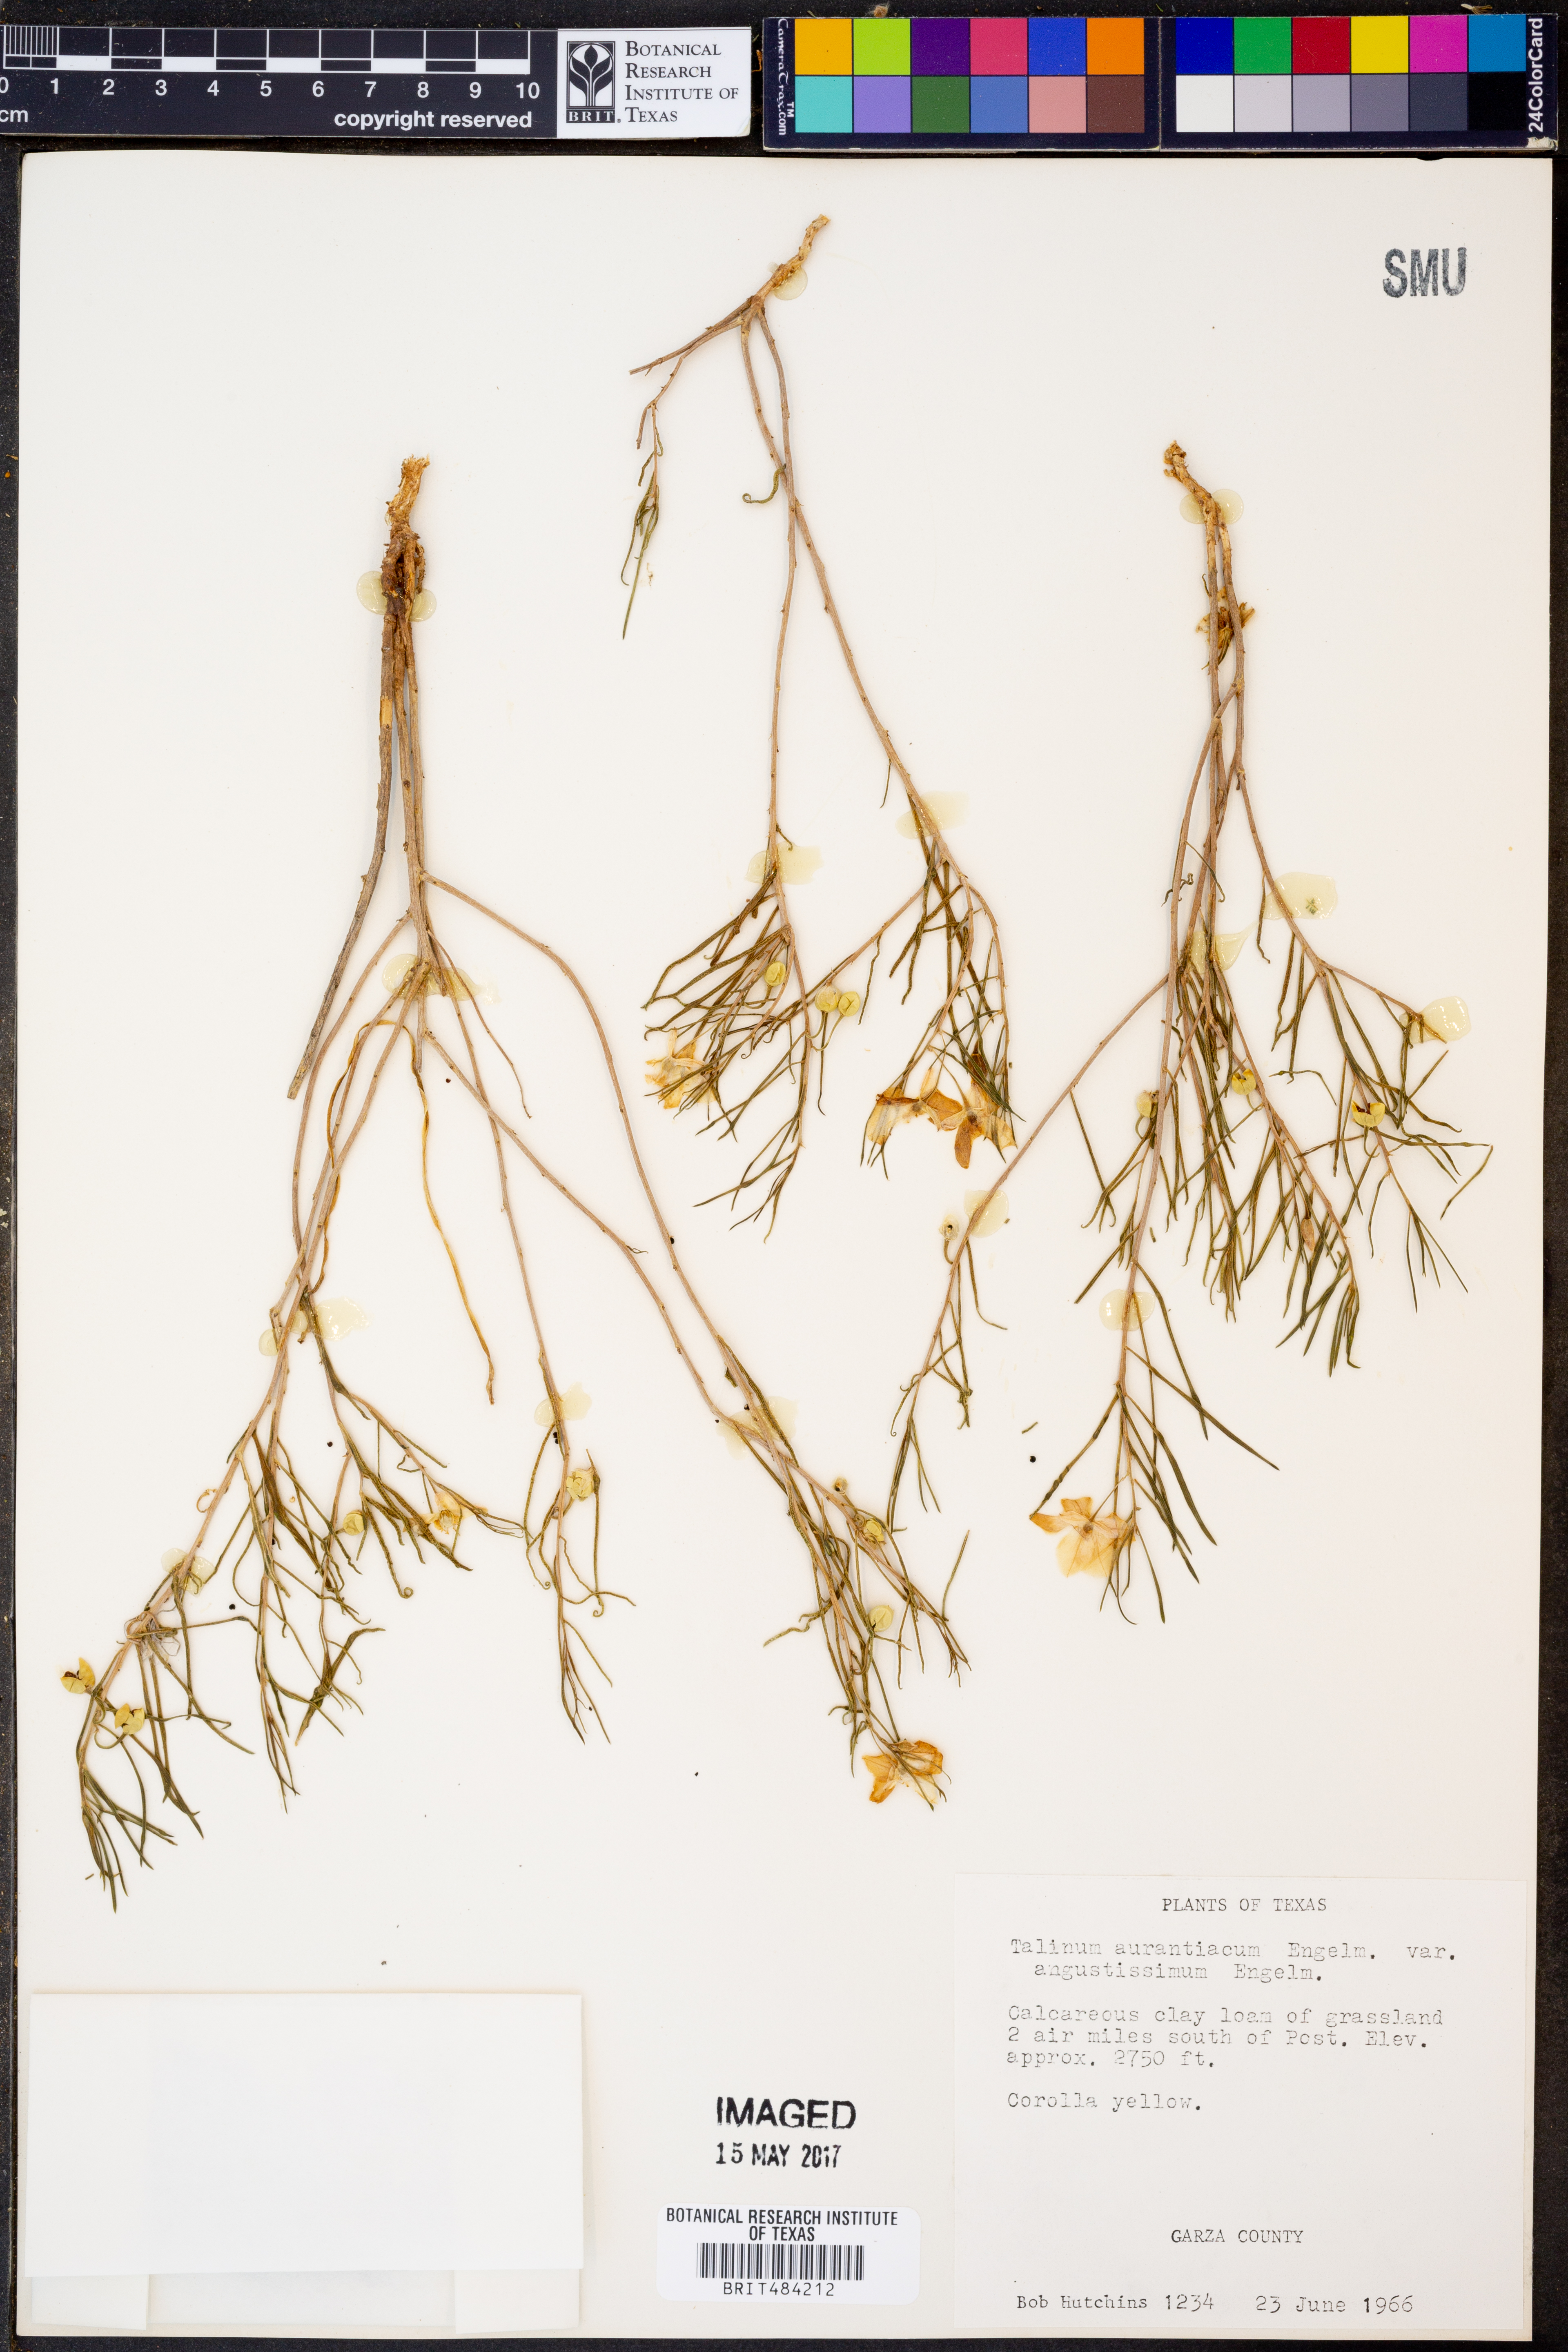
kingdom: Plantae
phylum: Tracheophyta
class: Magnoliopsida
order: Caryophyllales
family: Montiaceae
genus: Phemeranthus
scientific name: Phemeranthus aurantiacus
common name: Orange fameflower
